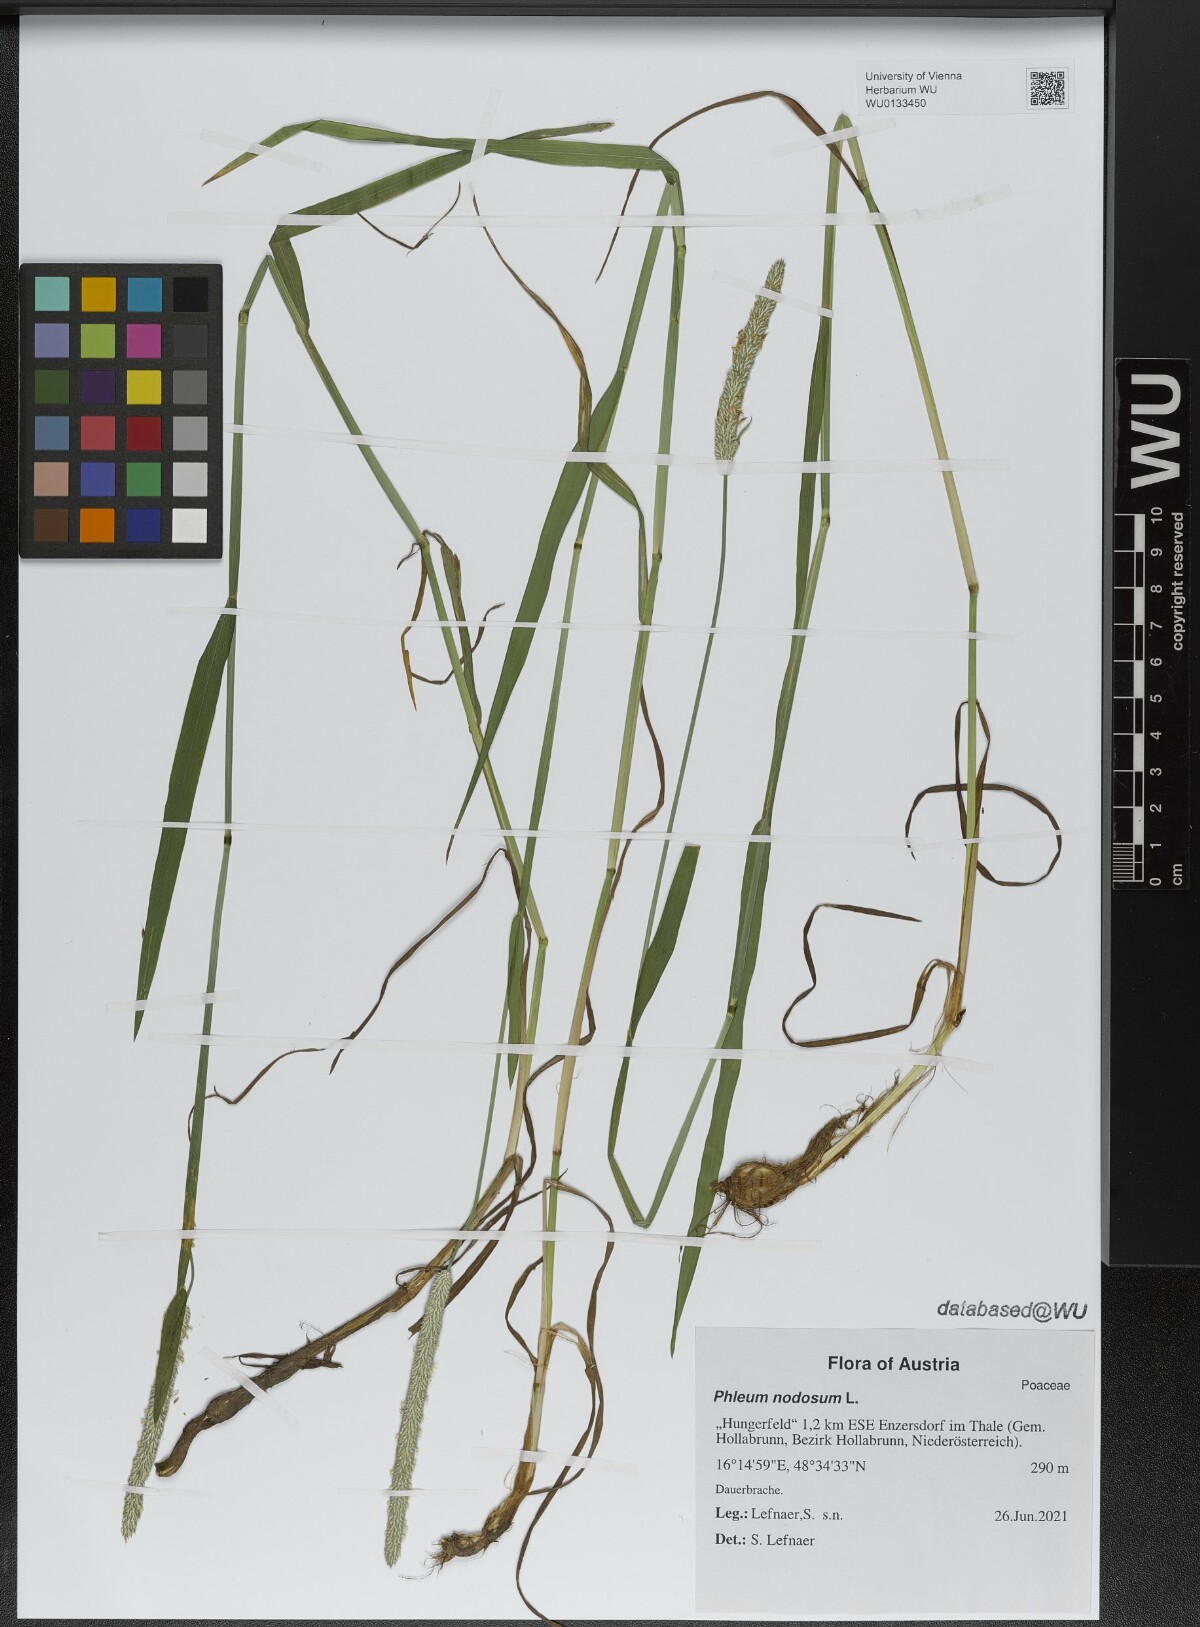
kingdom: Plantae
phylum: Tracheophyta
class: Liliopsida
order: Poales
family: Poaceae
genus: Phleum
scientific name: Phleum pratense
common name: Timothy grass
